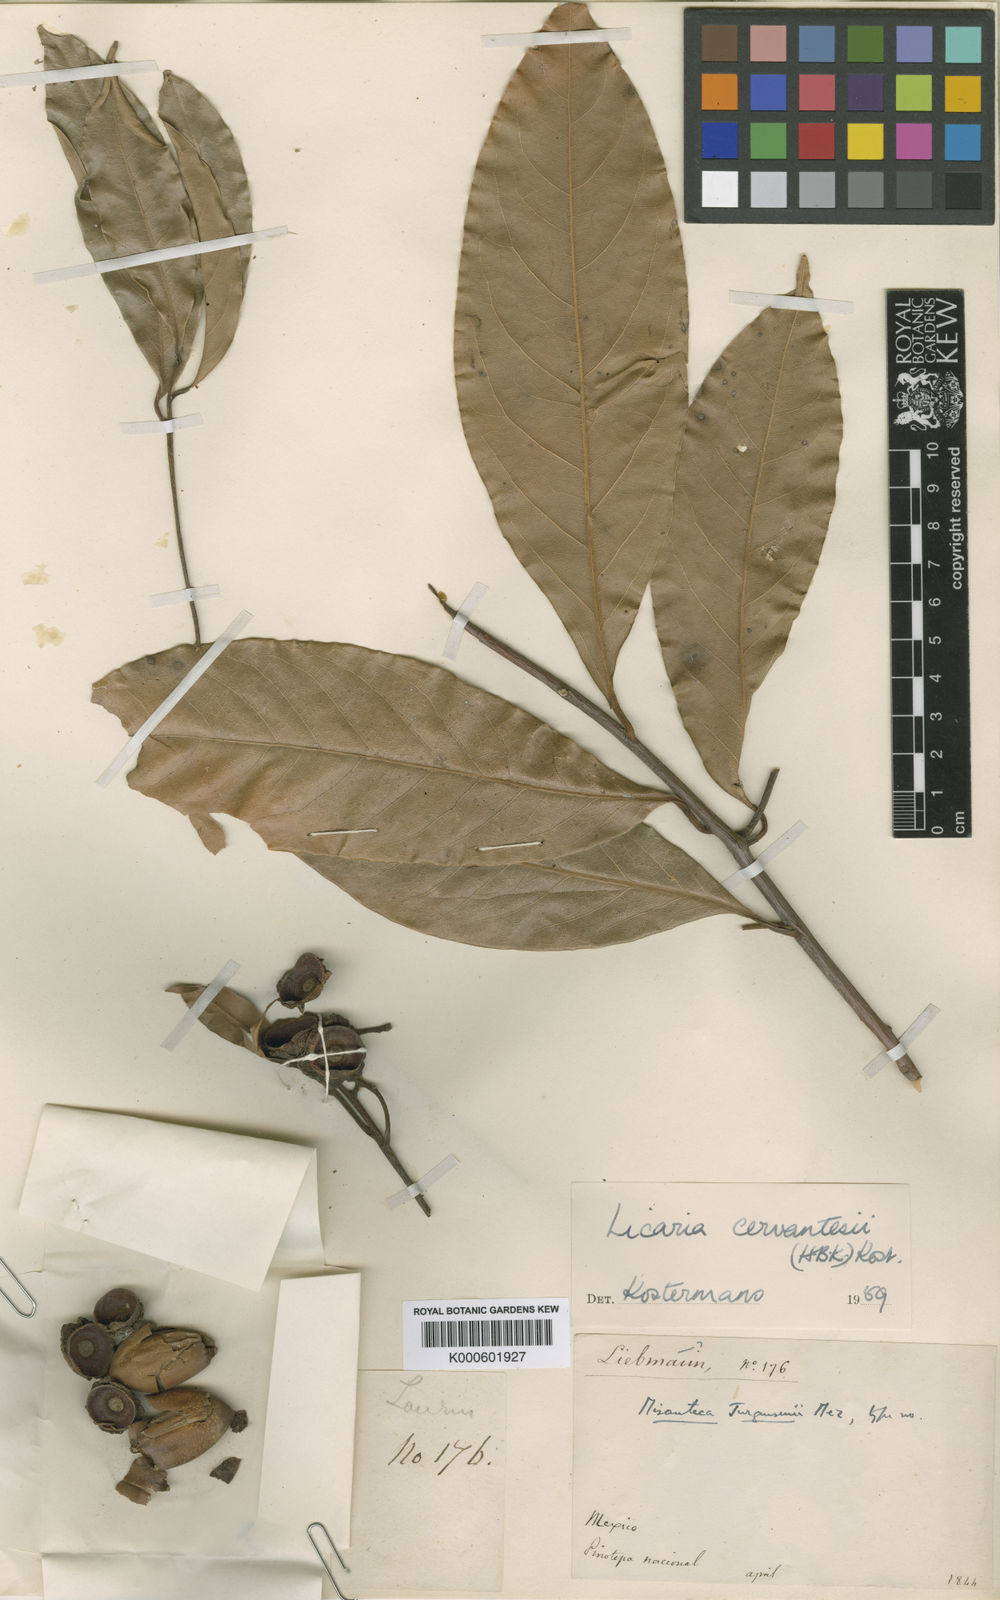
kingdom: Plantae
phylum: Tracheophyta
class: Magnoliopsida
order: Laurales
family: Lauraceae
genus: Licaria
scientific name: Licaria triandra
